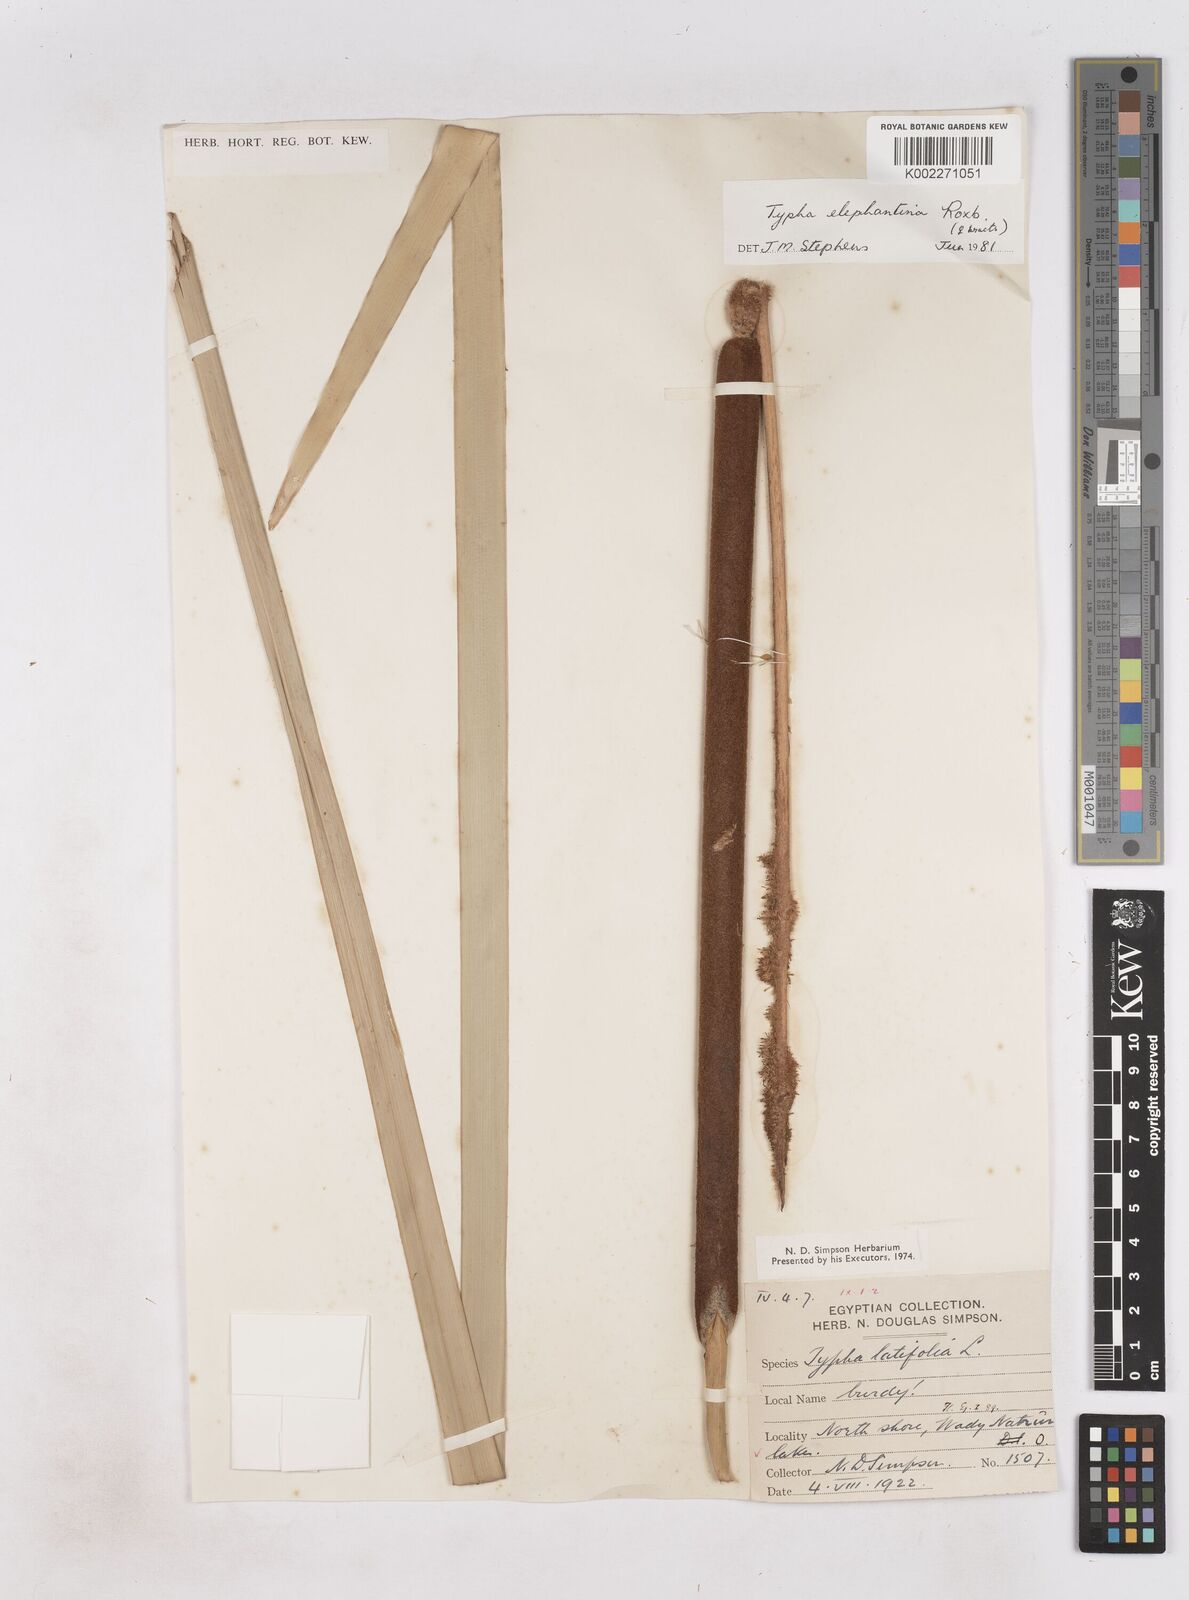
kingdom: Plantae
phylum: Tracheophyta
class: Liliopsida
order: Poales
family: Typhaceae
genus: Typha
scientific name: Typha elephantina
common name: Indian reed-grass
